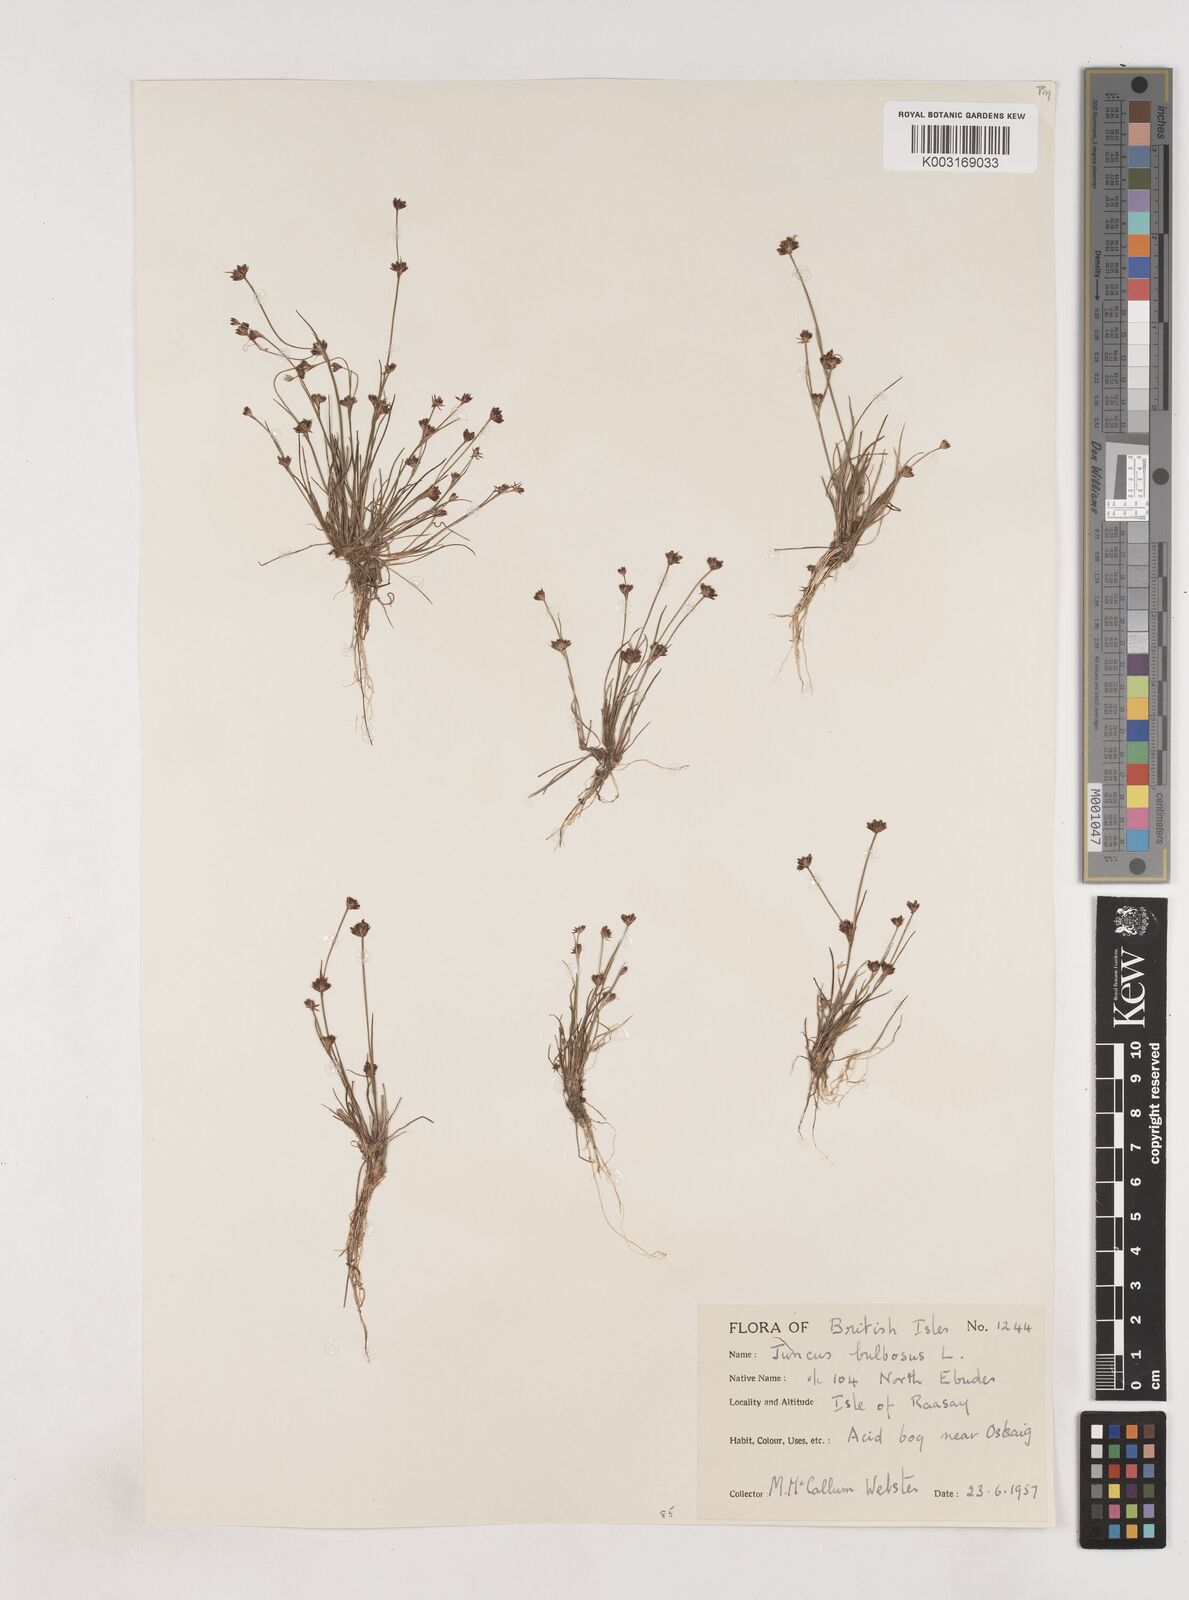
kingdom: Plantae
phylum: Tracheophyta
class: Liliopsida
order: Poales
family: Juncaceae
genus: Juncus
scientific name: Juncus bulbosus
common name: Bulbous rush
